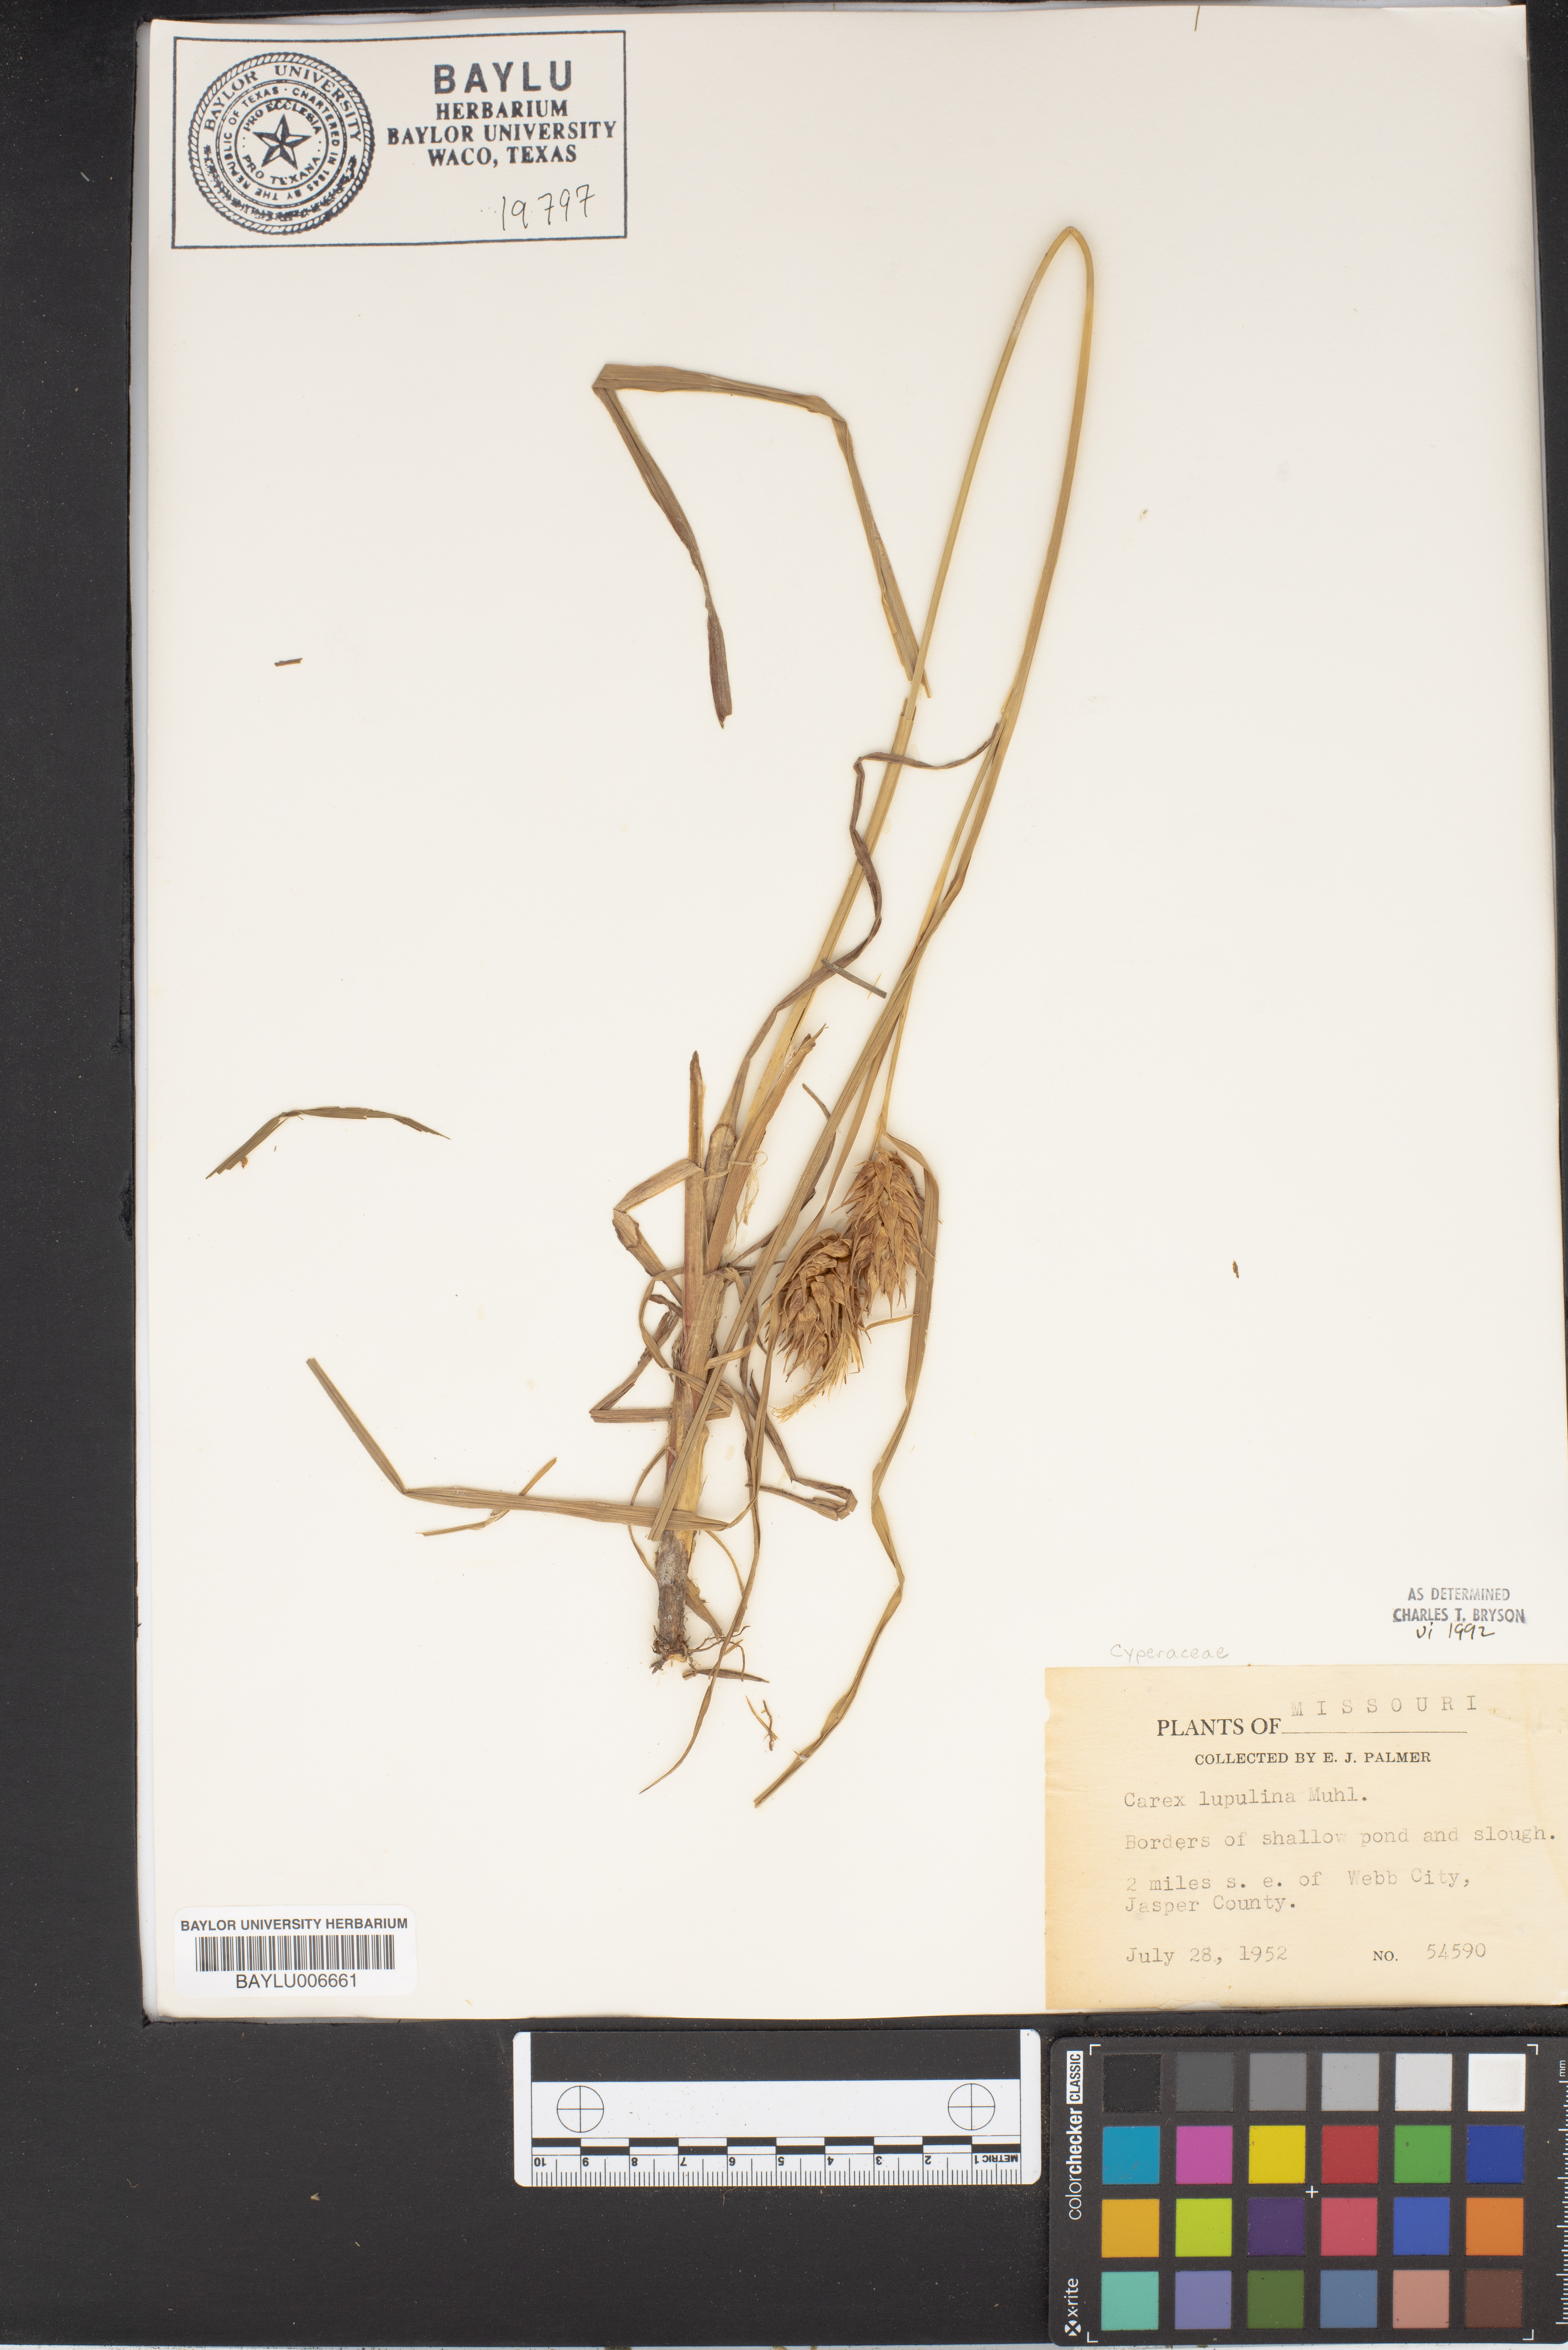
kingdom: Plantae
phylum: Tracheophyta
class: Liliopsida
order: Poales
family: Cyperaceae
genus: Carex
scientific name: Carex lupulina
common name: Hop sedge
